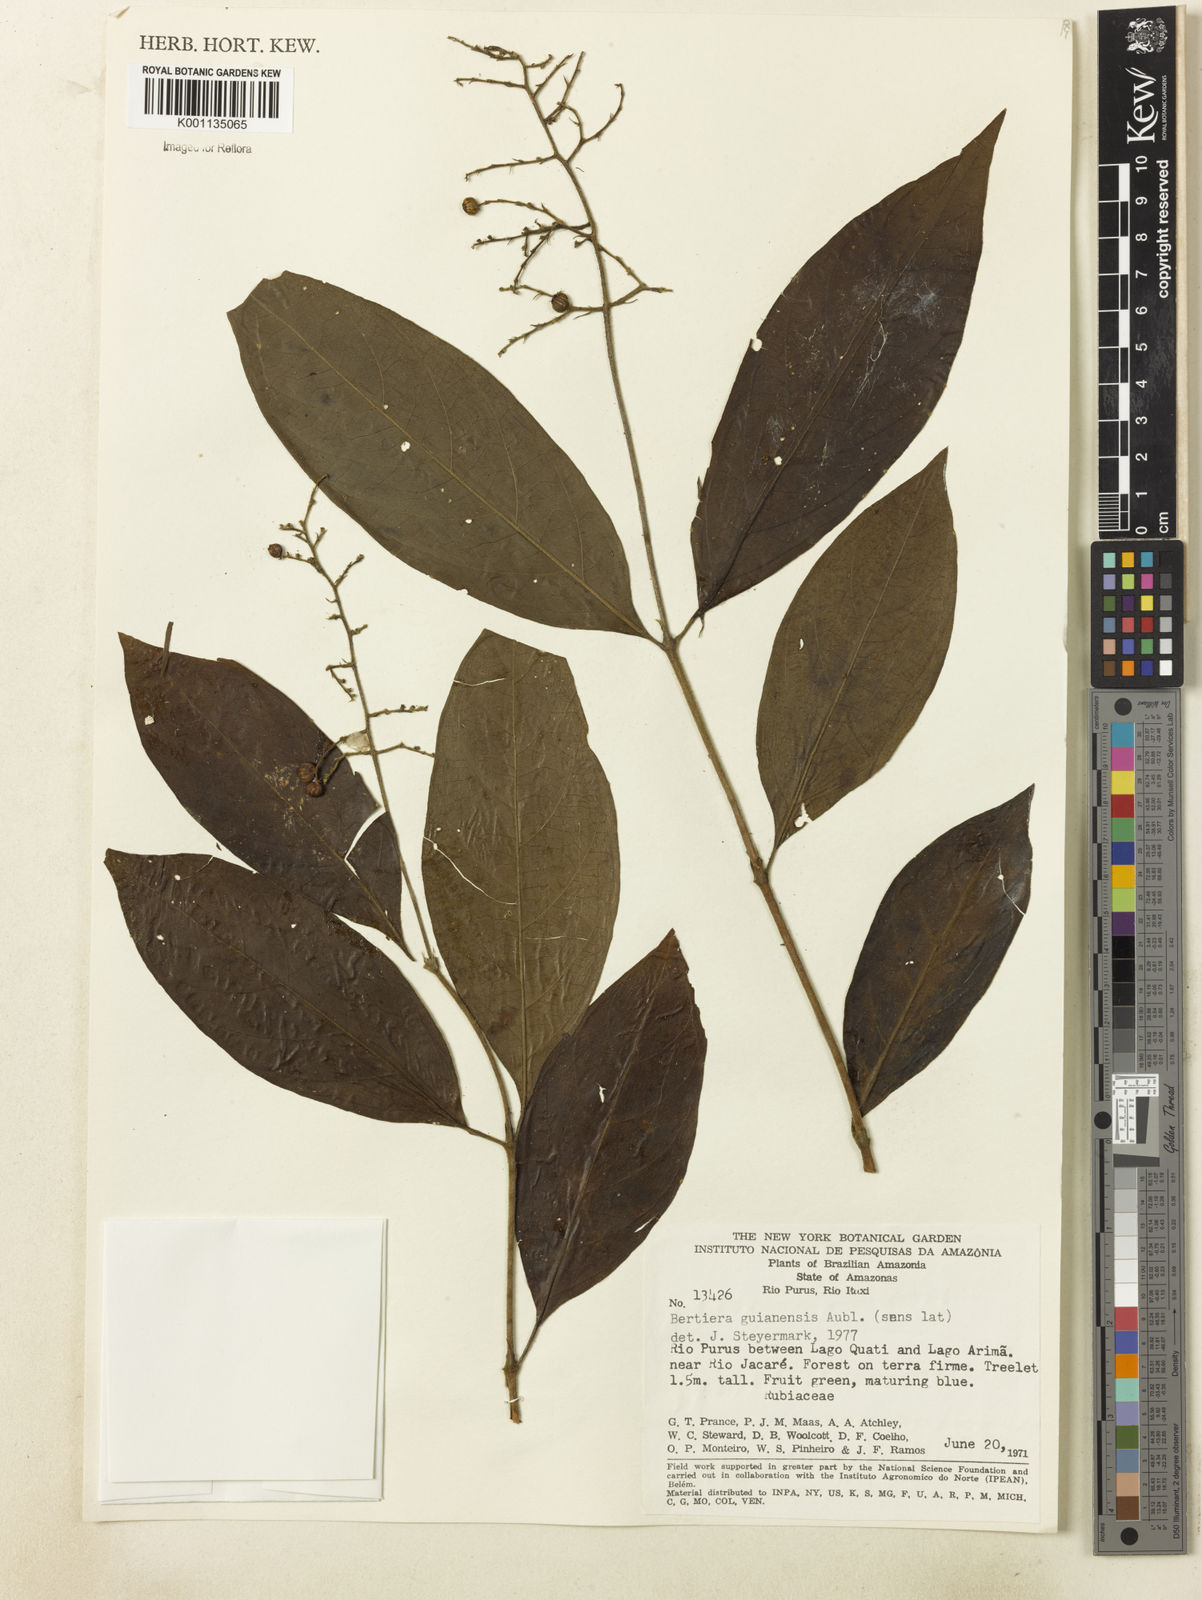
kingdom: Plantae
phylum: Tracheophyta
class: Magnoliopsida
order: Gentianales
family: Rubiaceae
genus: Bertiera
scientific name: Bertiera guianensis
